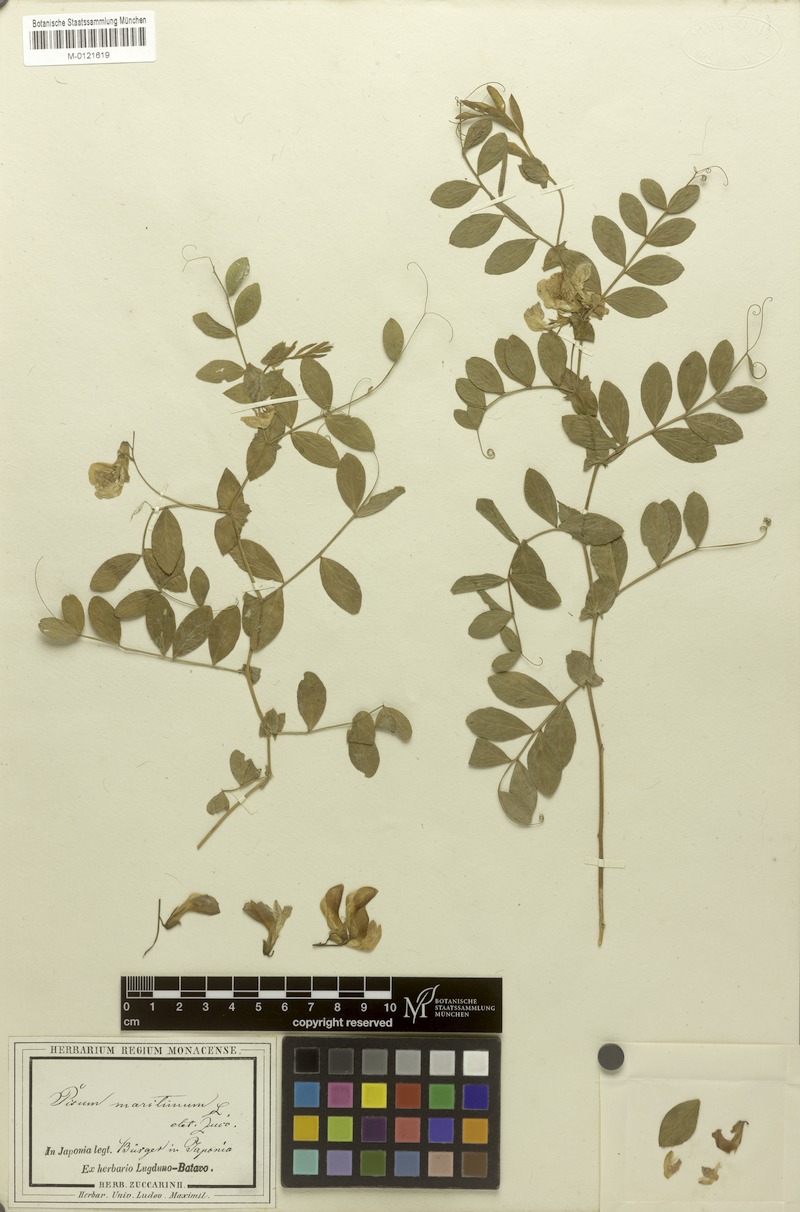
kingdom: Plantae
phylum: Tracheophyta
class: Magnoliopsida
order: Fabales
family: Fabaceae
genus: Lathyrus
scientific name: Lathyrus japonicus
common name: Sea pea
